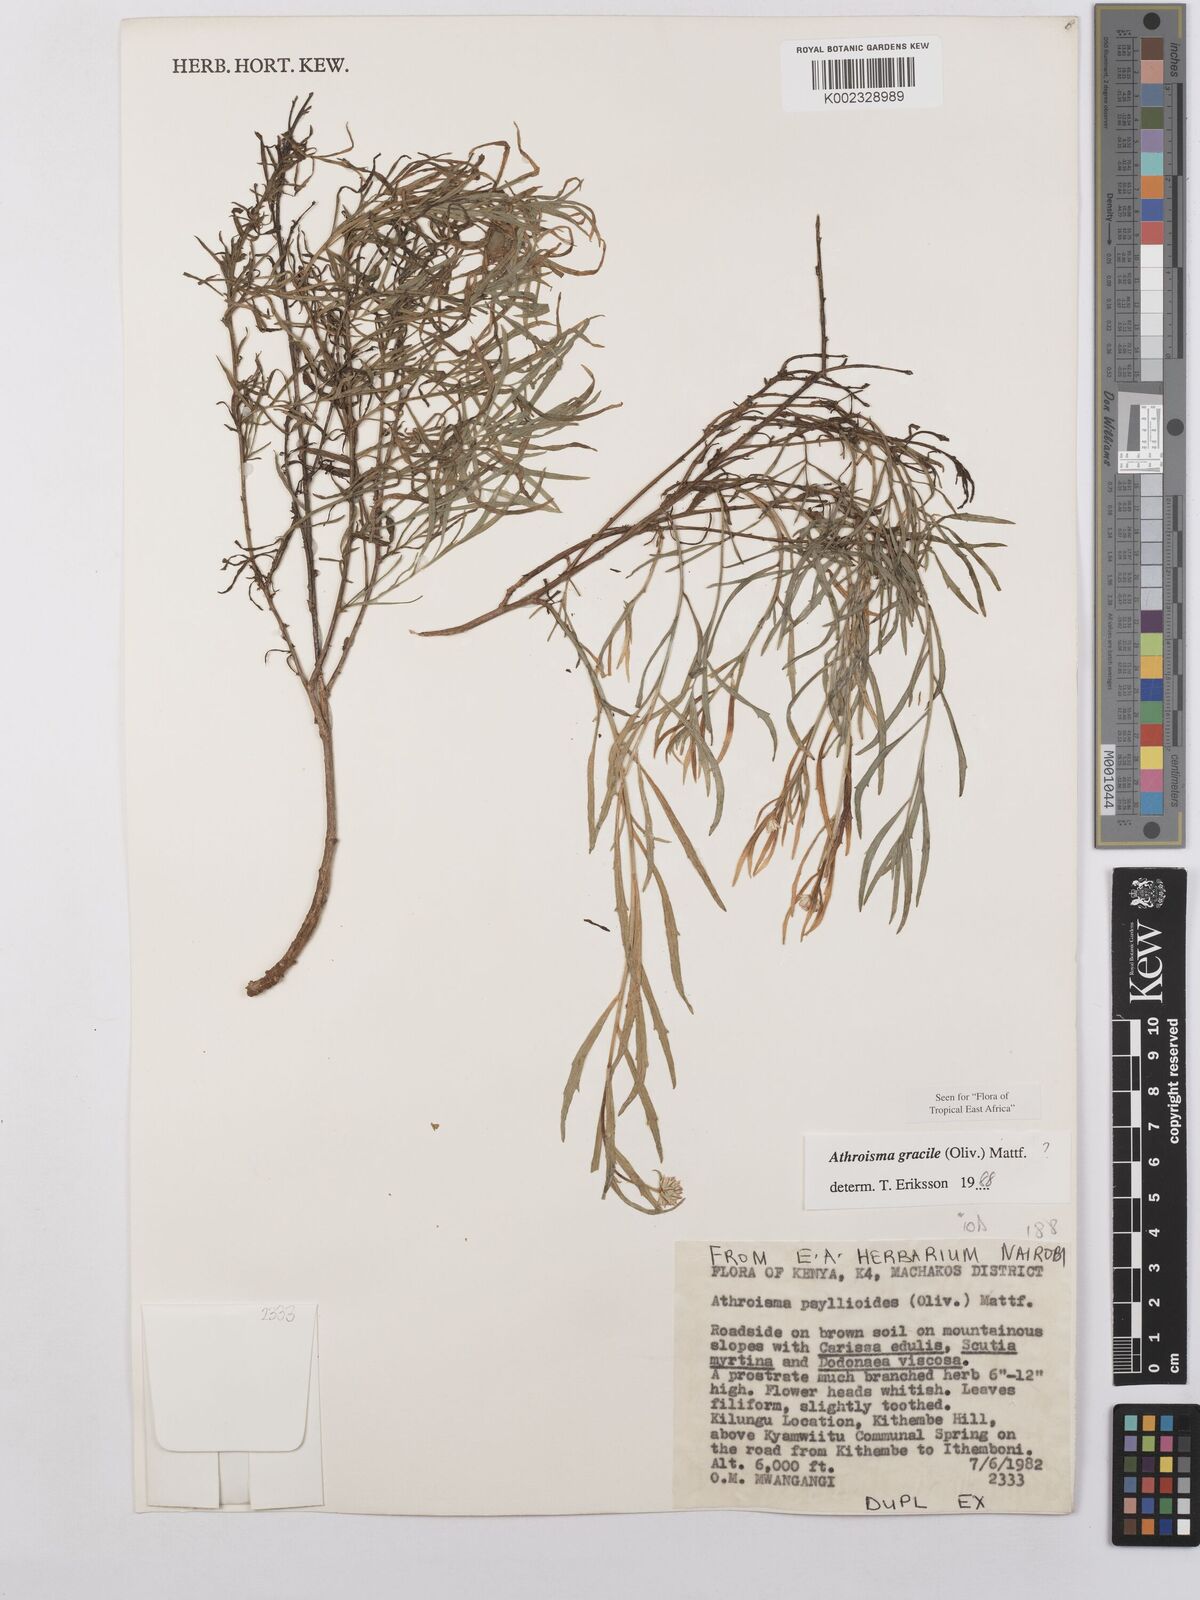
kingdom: Plantae
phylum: Tracheophyta
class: Magnoliopsida
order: Asterales
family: Asteraceae
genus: Athroisma
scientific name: Athroisma gracile
